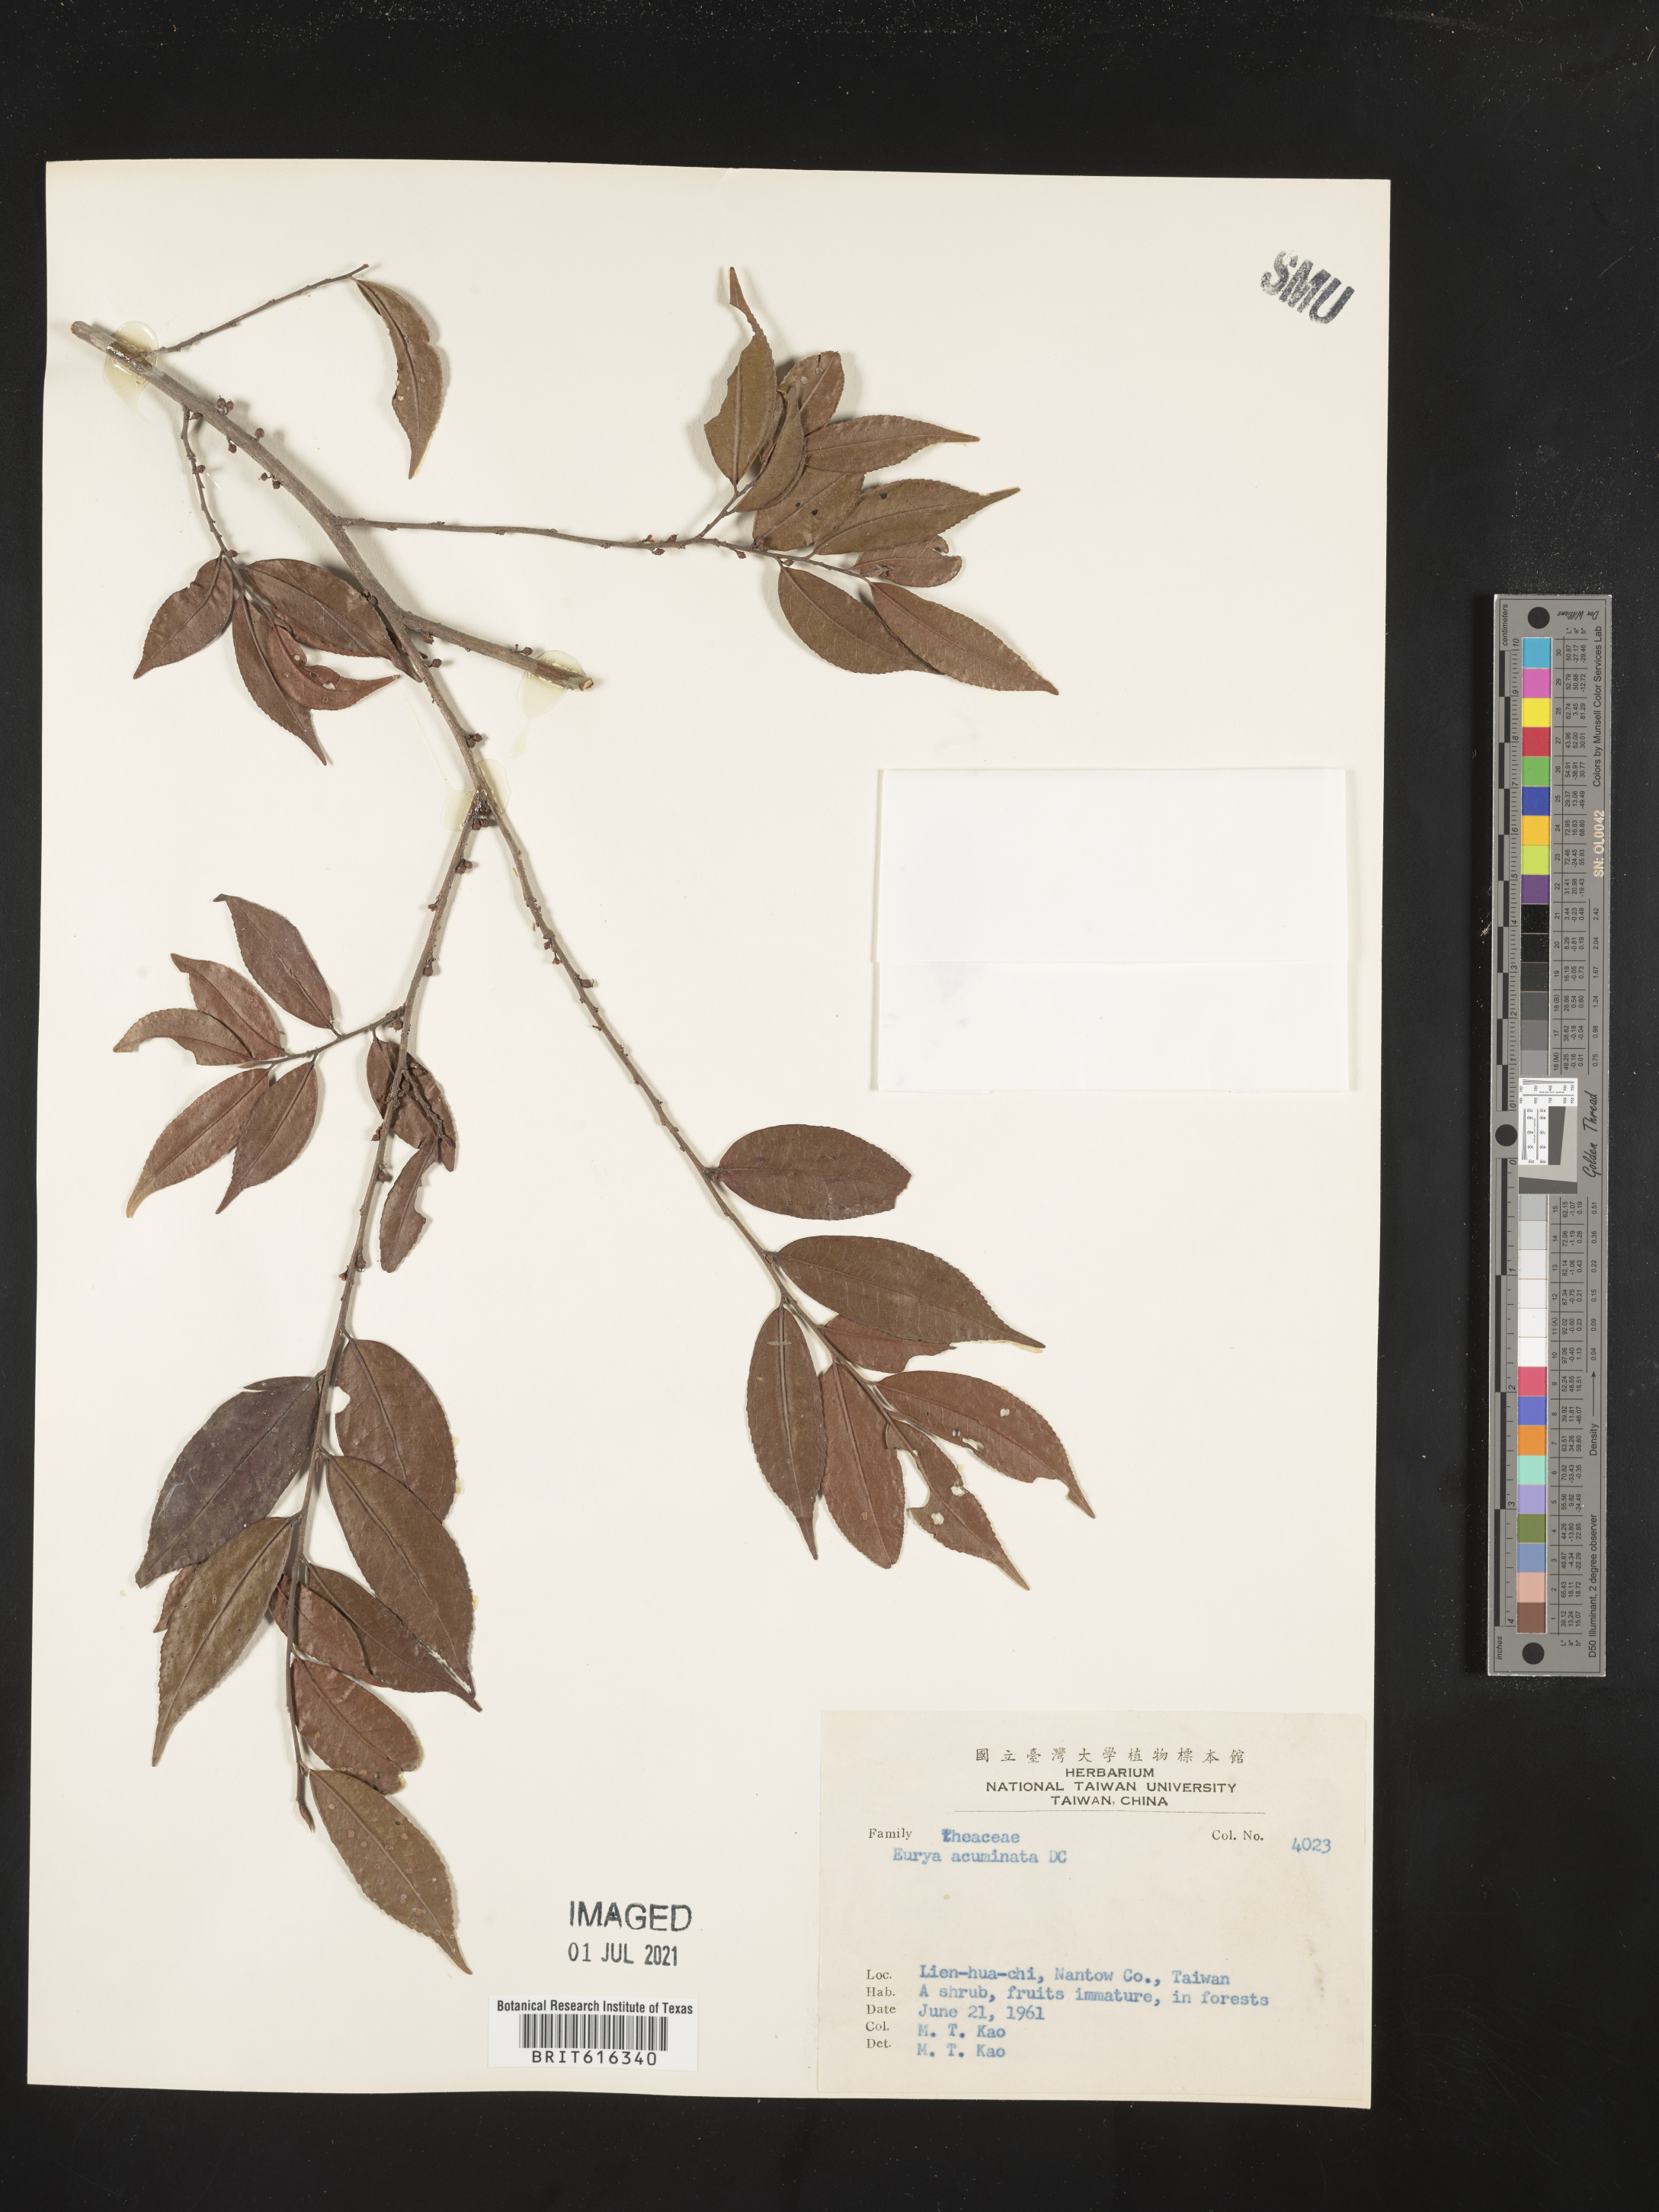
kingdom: Plantae
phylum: Tracheophyta
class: Magnoliopsida
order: Ericales
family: Pentaphylacaceae
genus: Eurya
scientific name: Eurya acuminata
